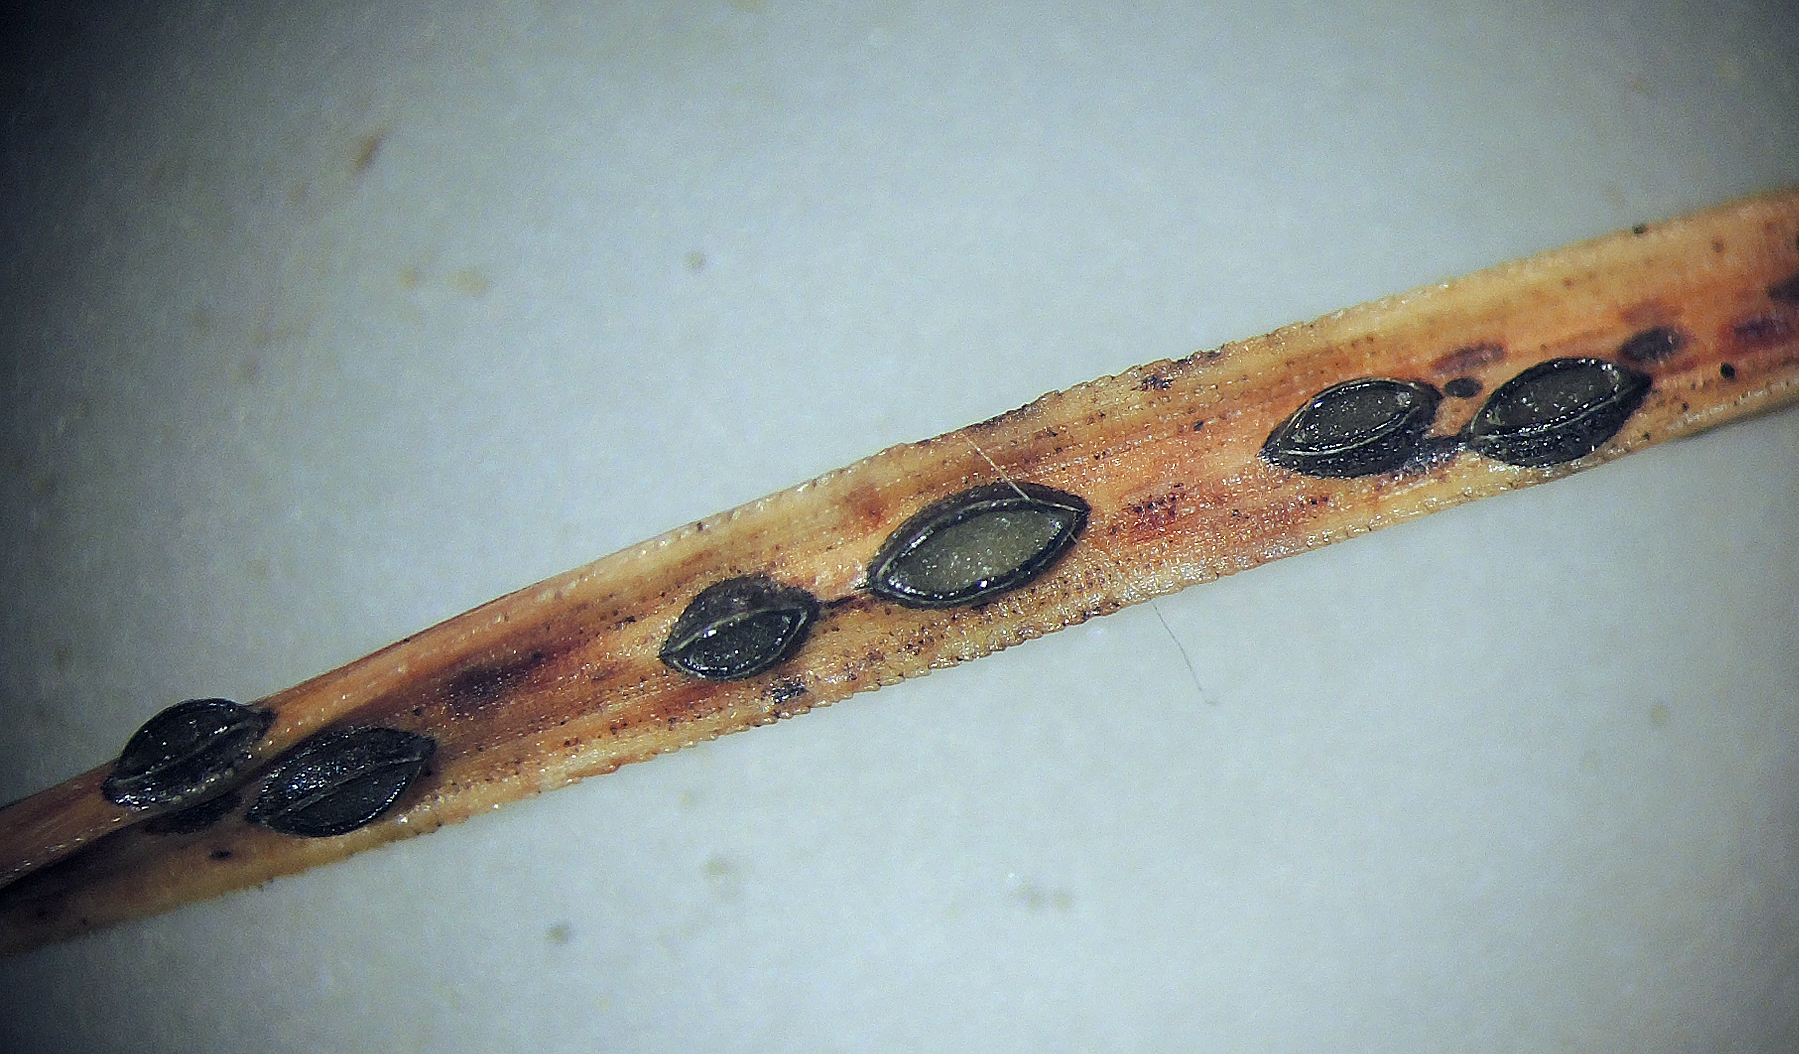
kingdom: Fungi
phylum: Ascomycota
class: Leotiomycetes
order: Rhytismatales
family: Rhytismataceae
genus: Lophodermium
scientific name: Lophodermium conigenum
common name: kogle-fureplet
